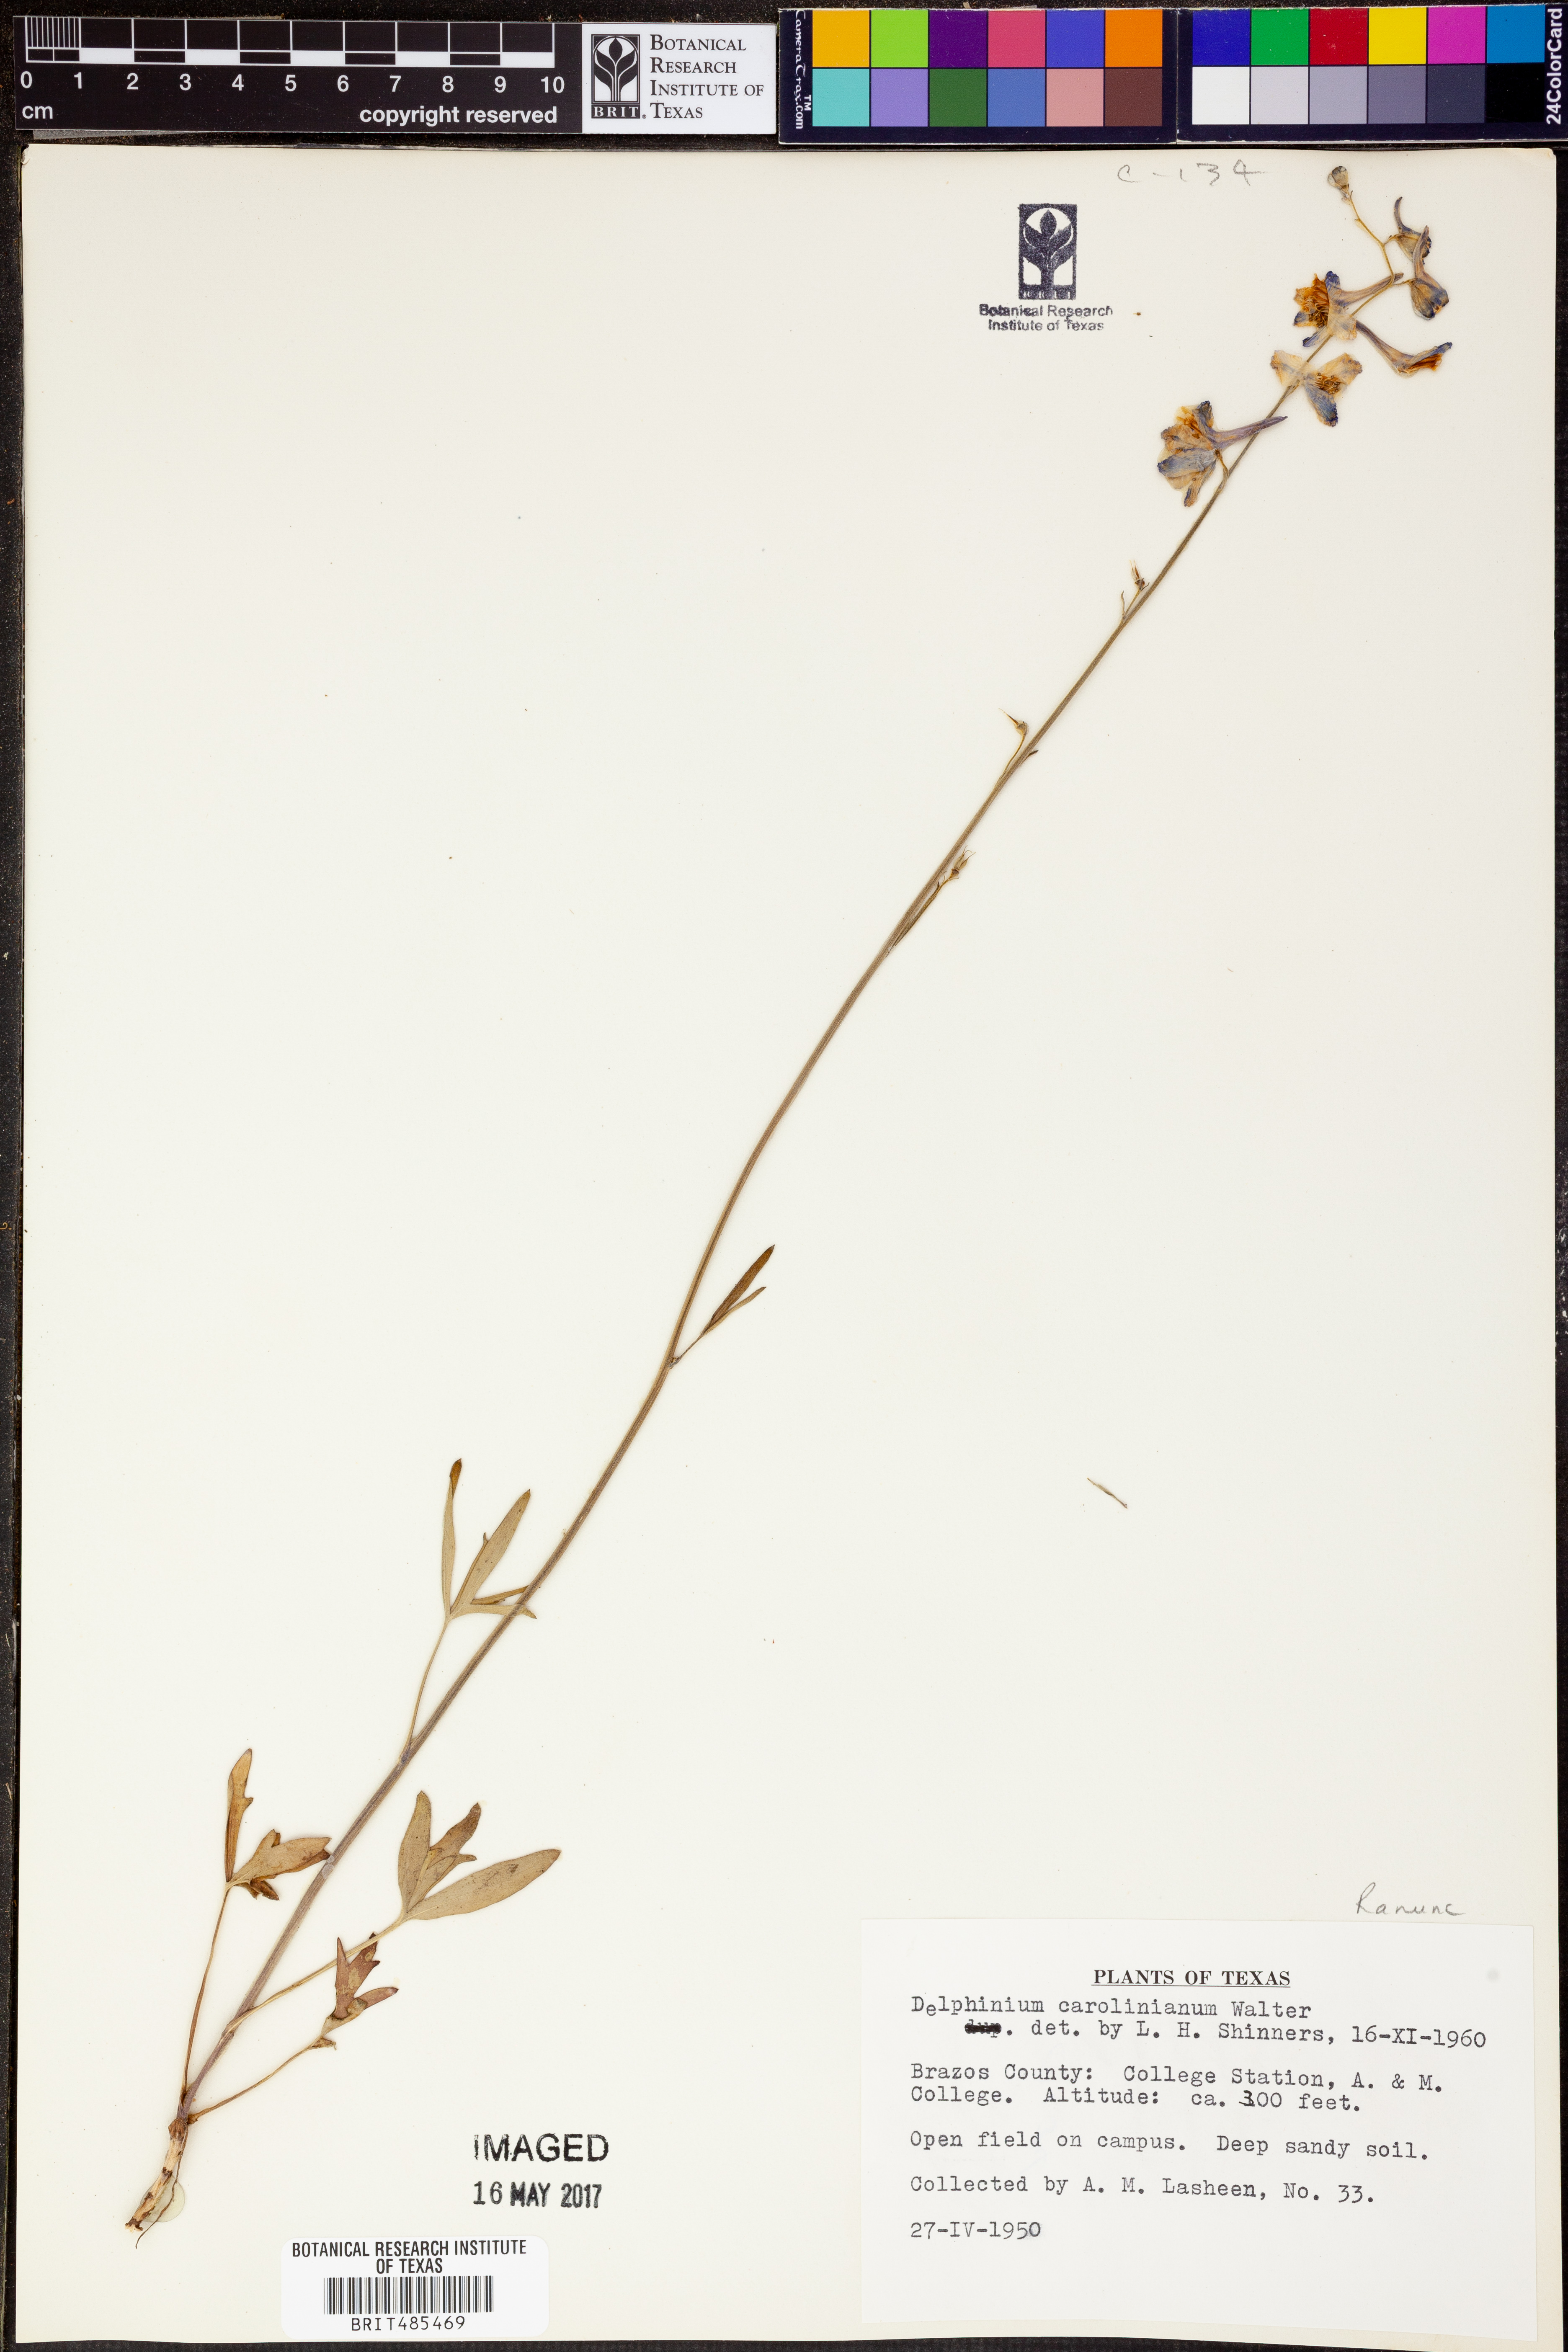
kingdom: Plantae
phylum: Tracheophyta
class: Magnoliopsida
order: Ranunculales
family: Ranunculaceae
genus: Delphinium
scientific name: Delphinium carolinianum
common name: Carolina larkspur
